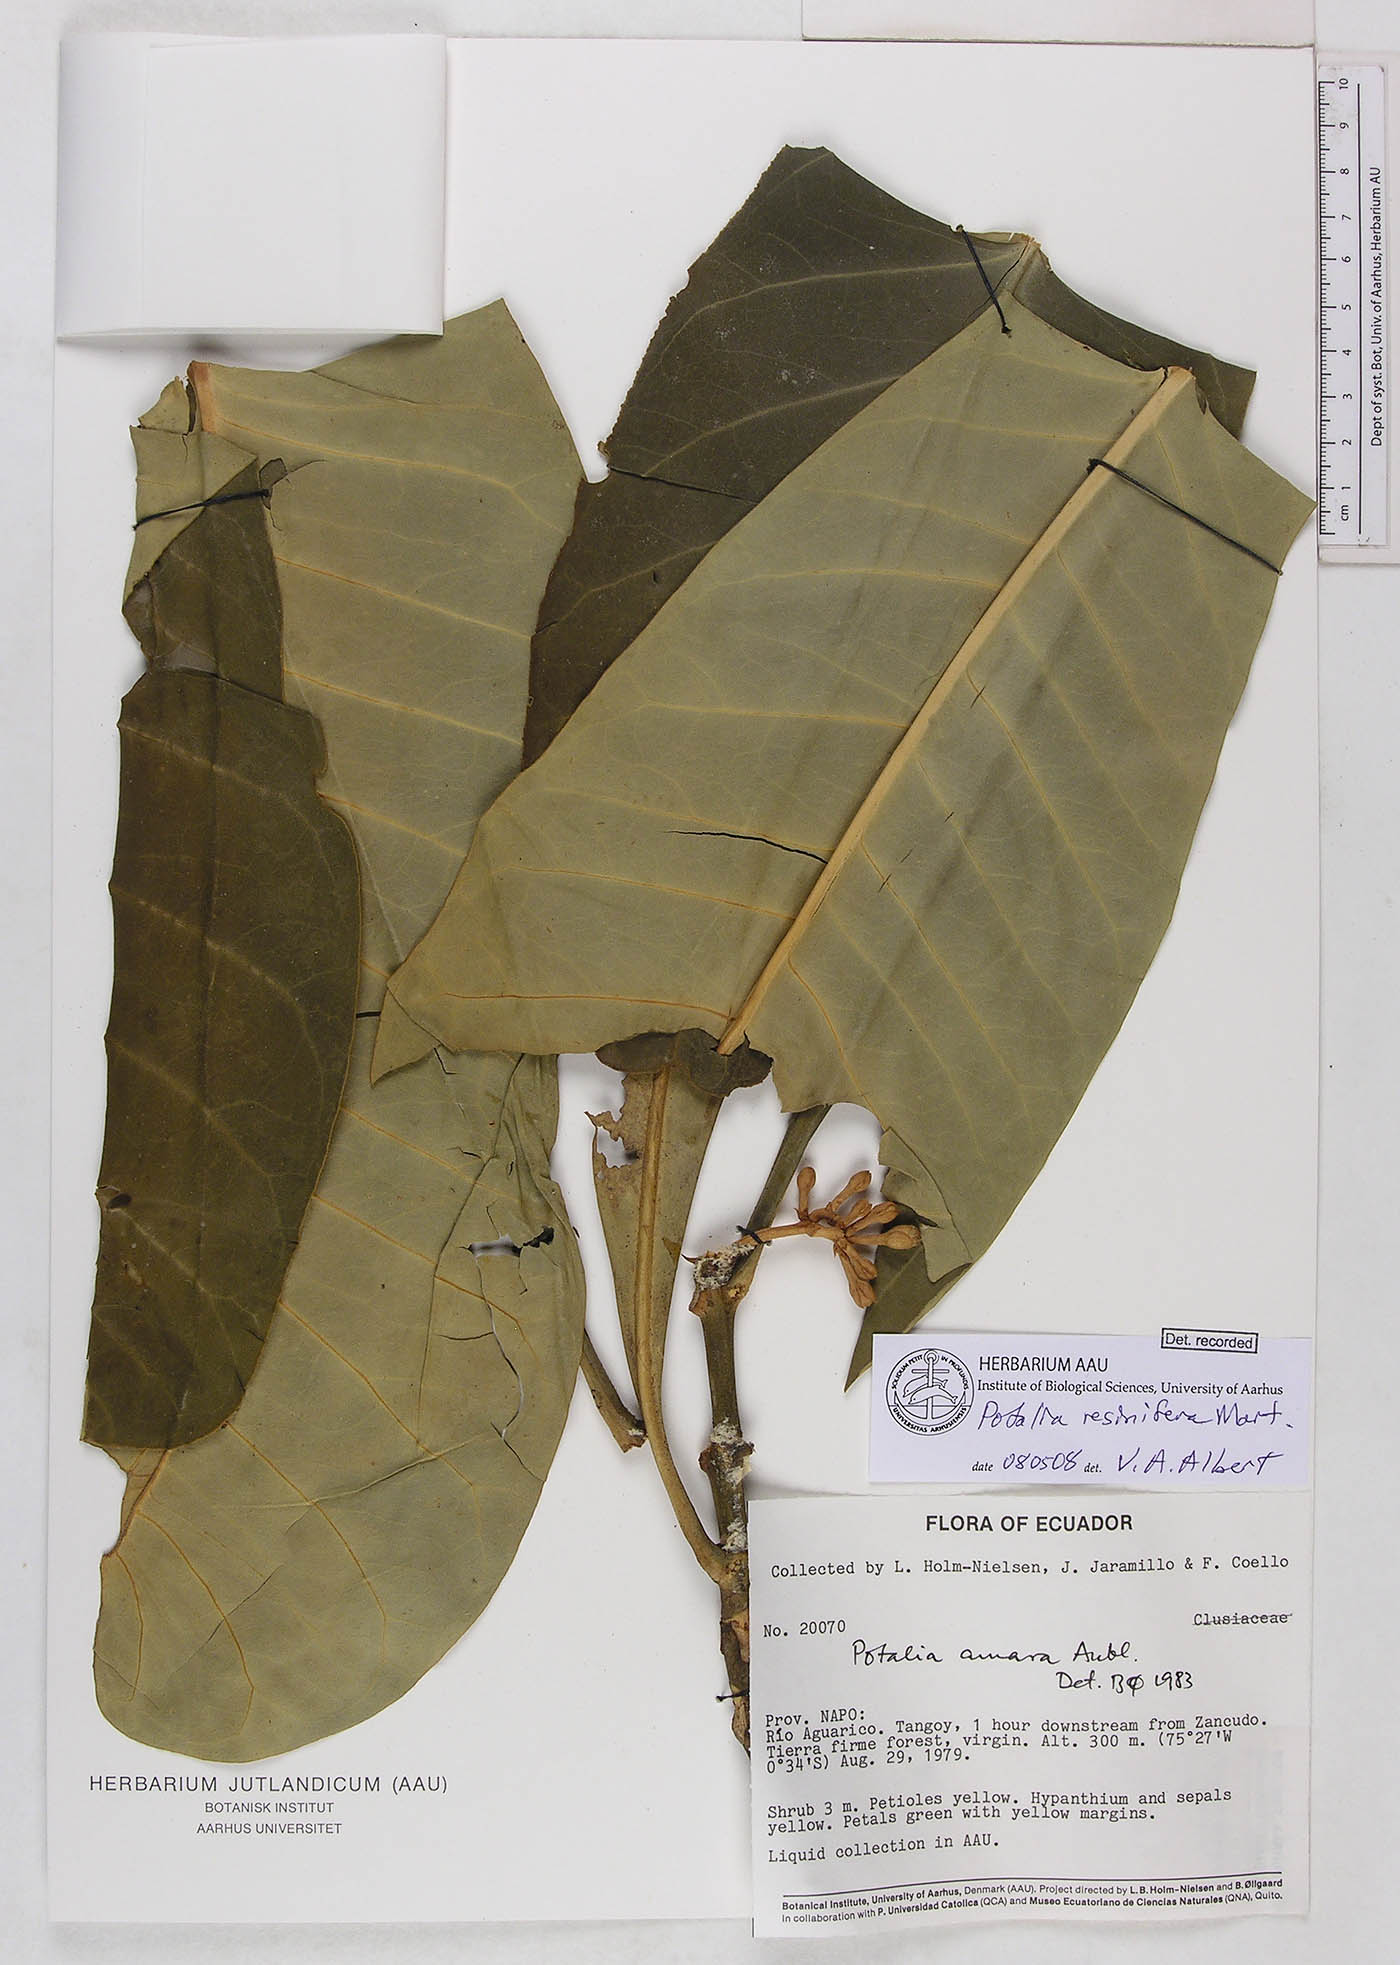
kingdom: Plantae
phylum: Tracheophyta
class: Magnoliopsida
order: Gentianales
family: Gentianaceae
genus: Potalia
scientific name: Potalia resinifera
